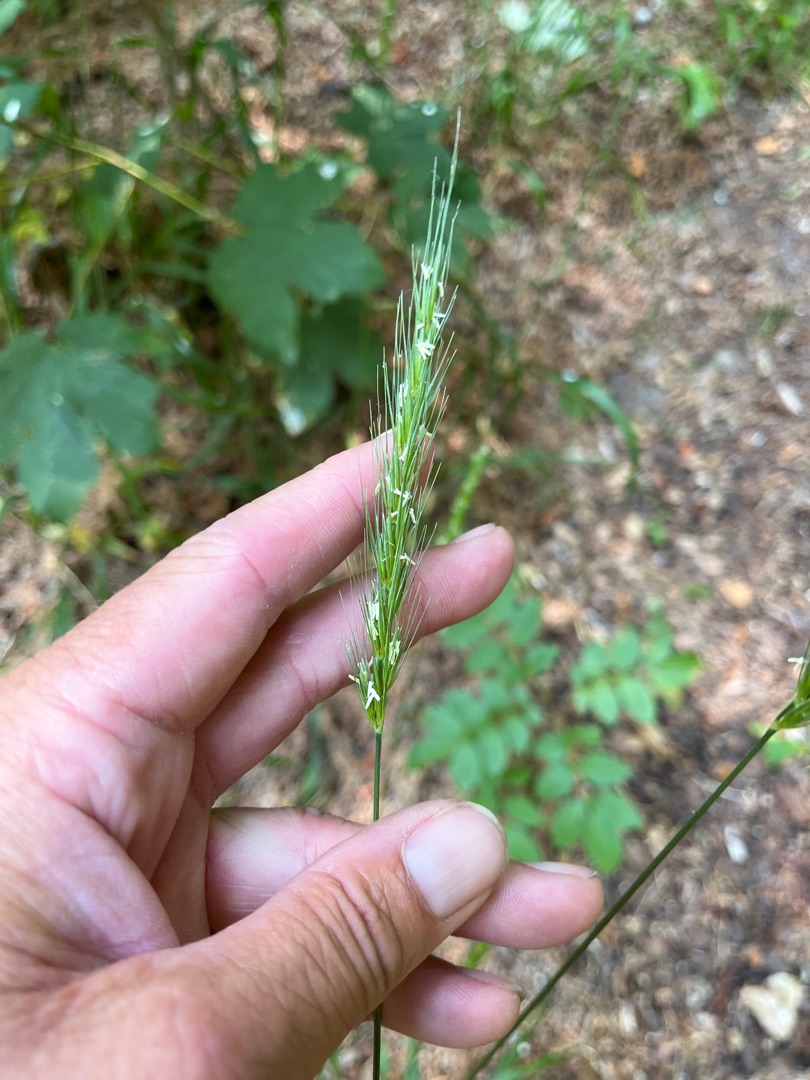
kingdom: Plantae
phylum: Tracheophyta
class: Liliopsida
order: Poales
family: Poaceae
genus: Hordelymus
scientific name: Hordelymus europaeus
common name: Skovbyg
